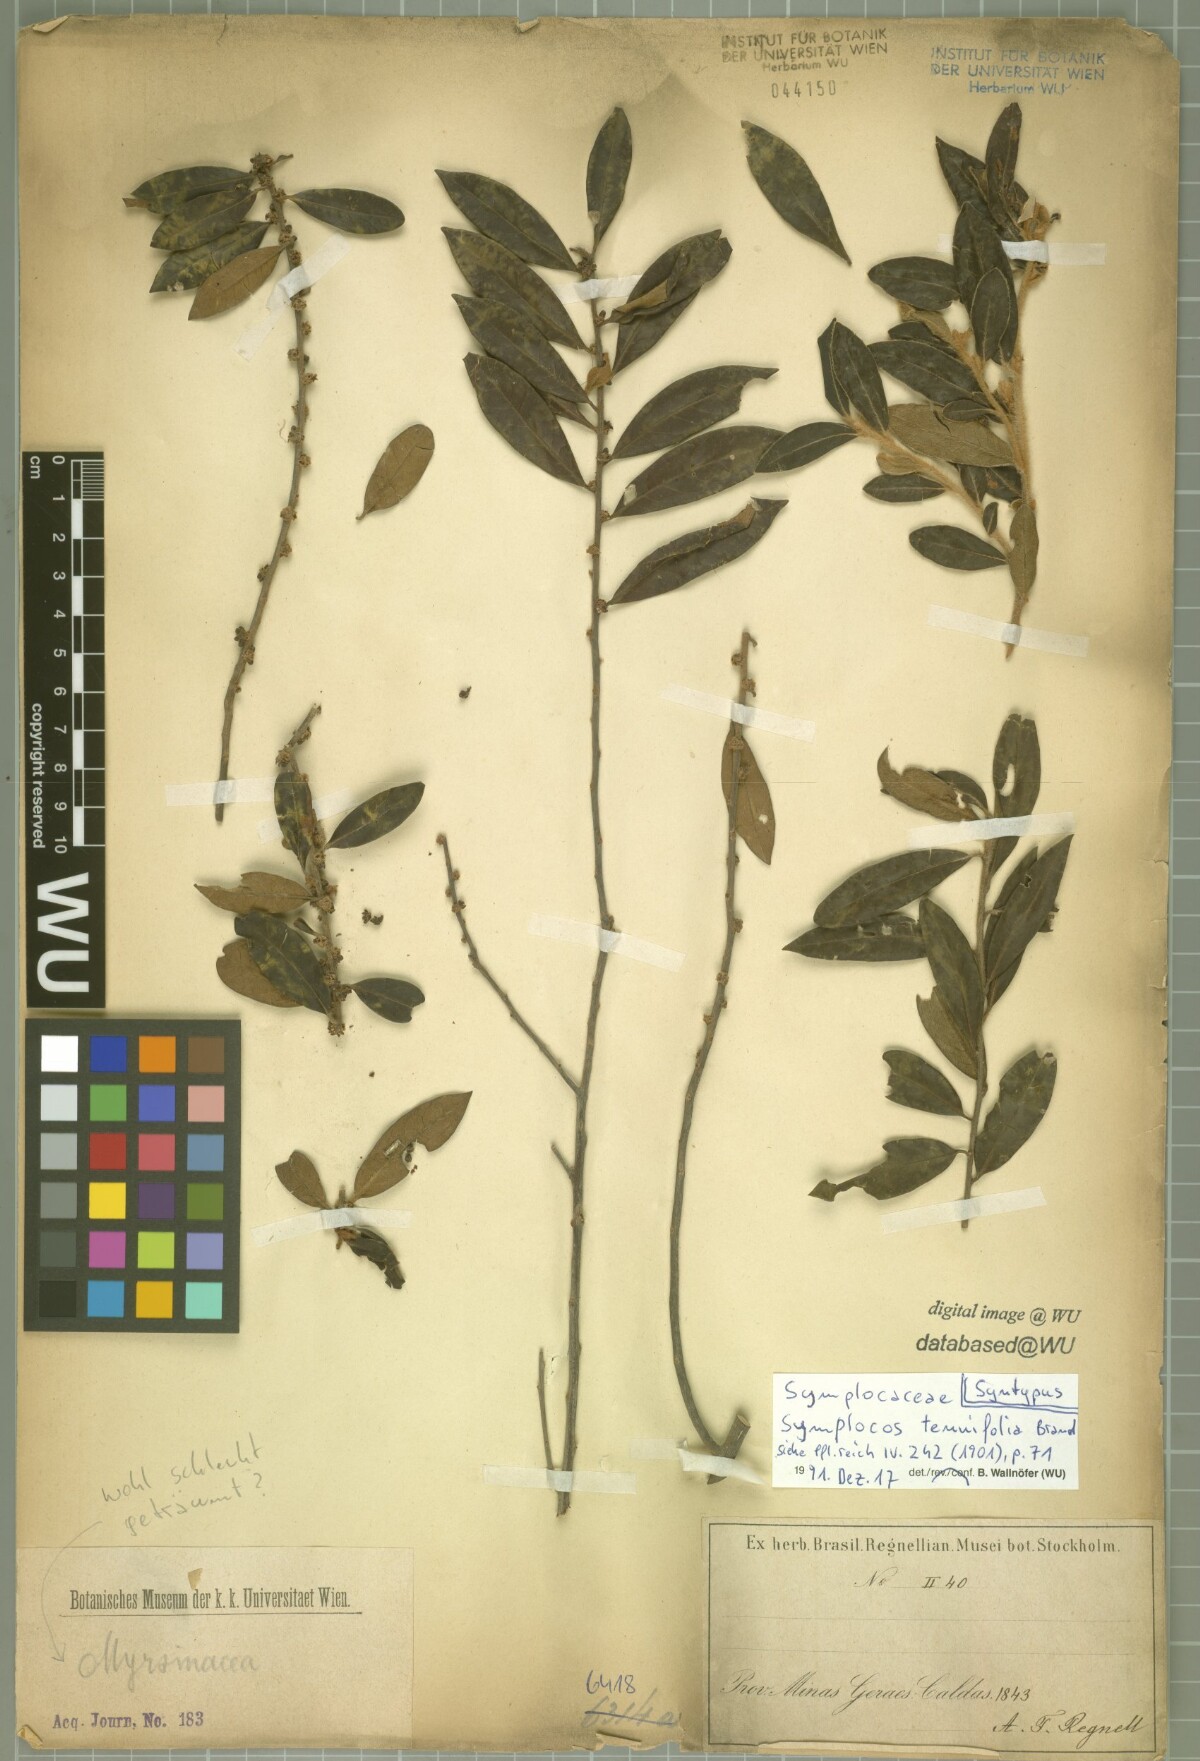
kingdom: Plantae
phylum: Tracheophyta
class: Magnoliopsida
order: Ericales
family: Symplocaceae
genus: Symplocos
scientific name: Symplocos tenuifolia
